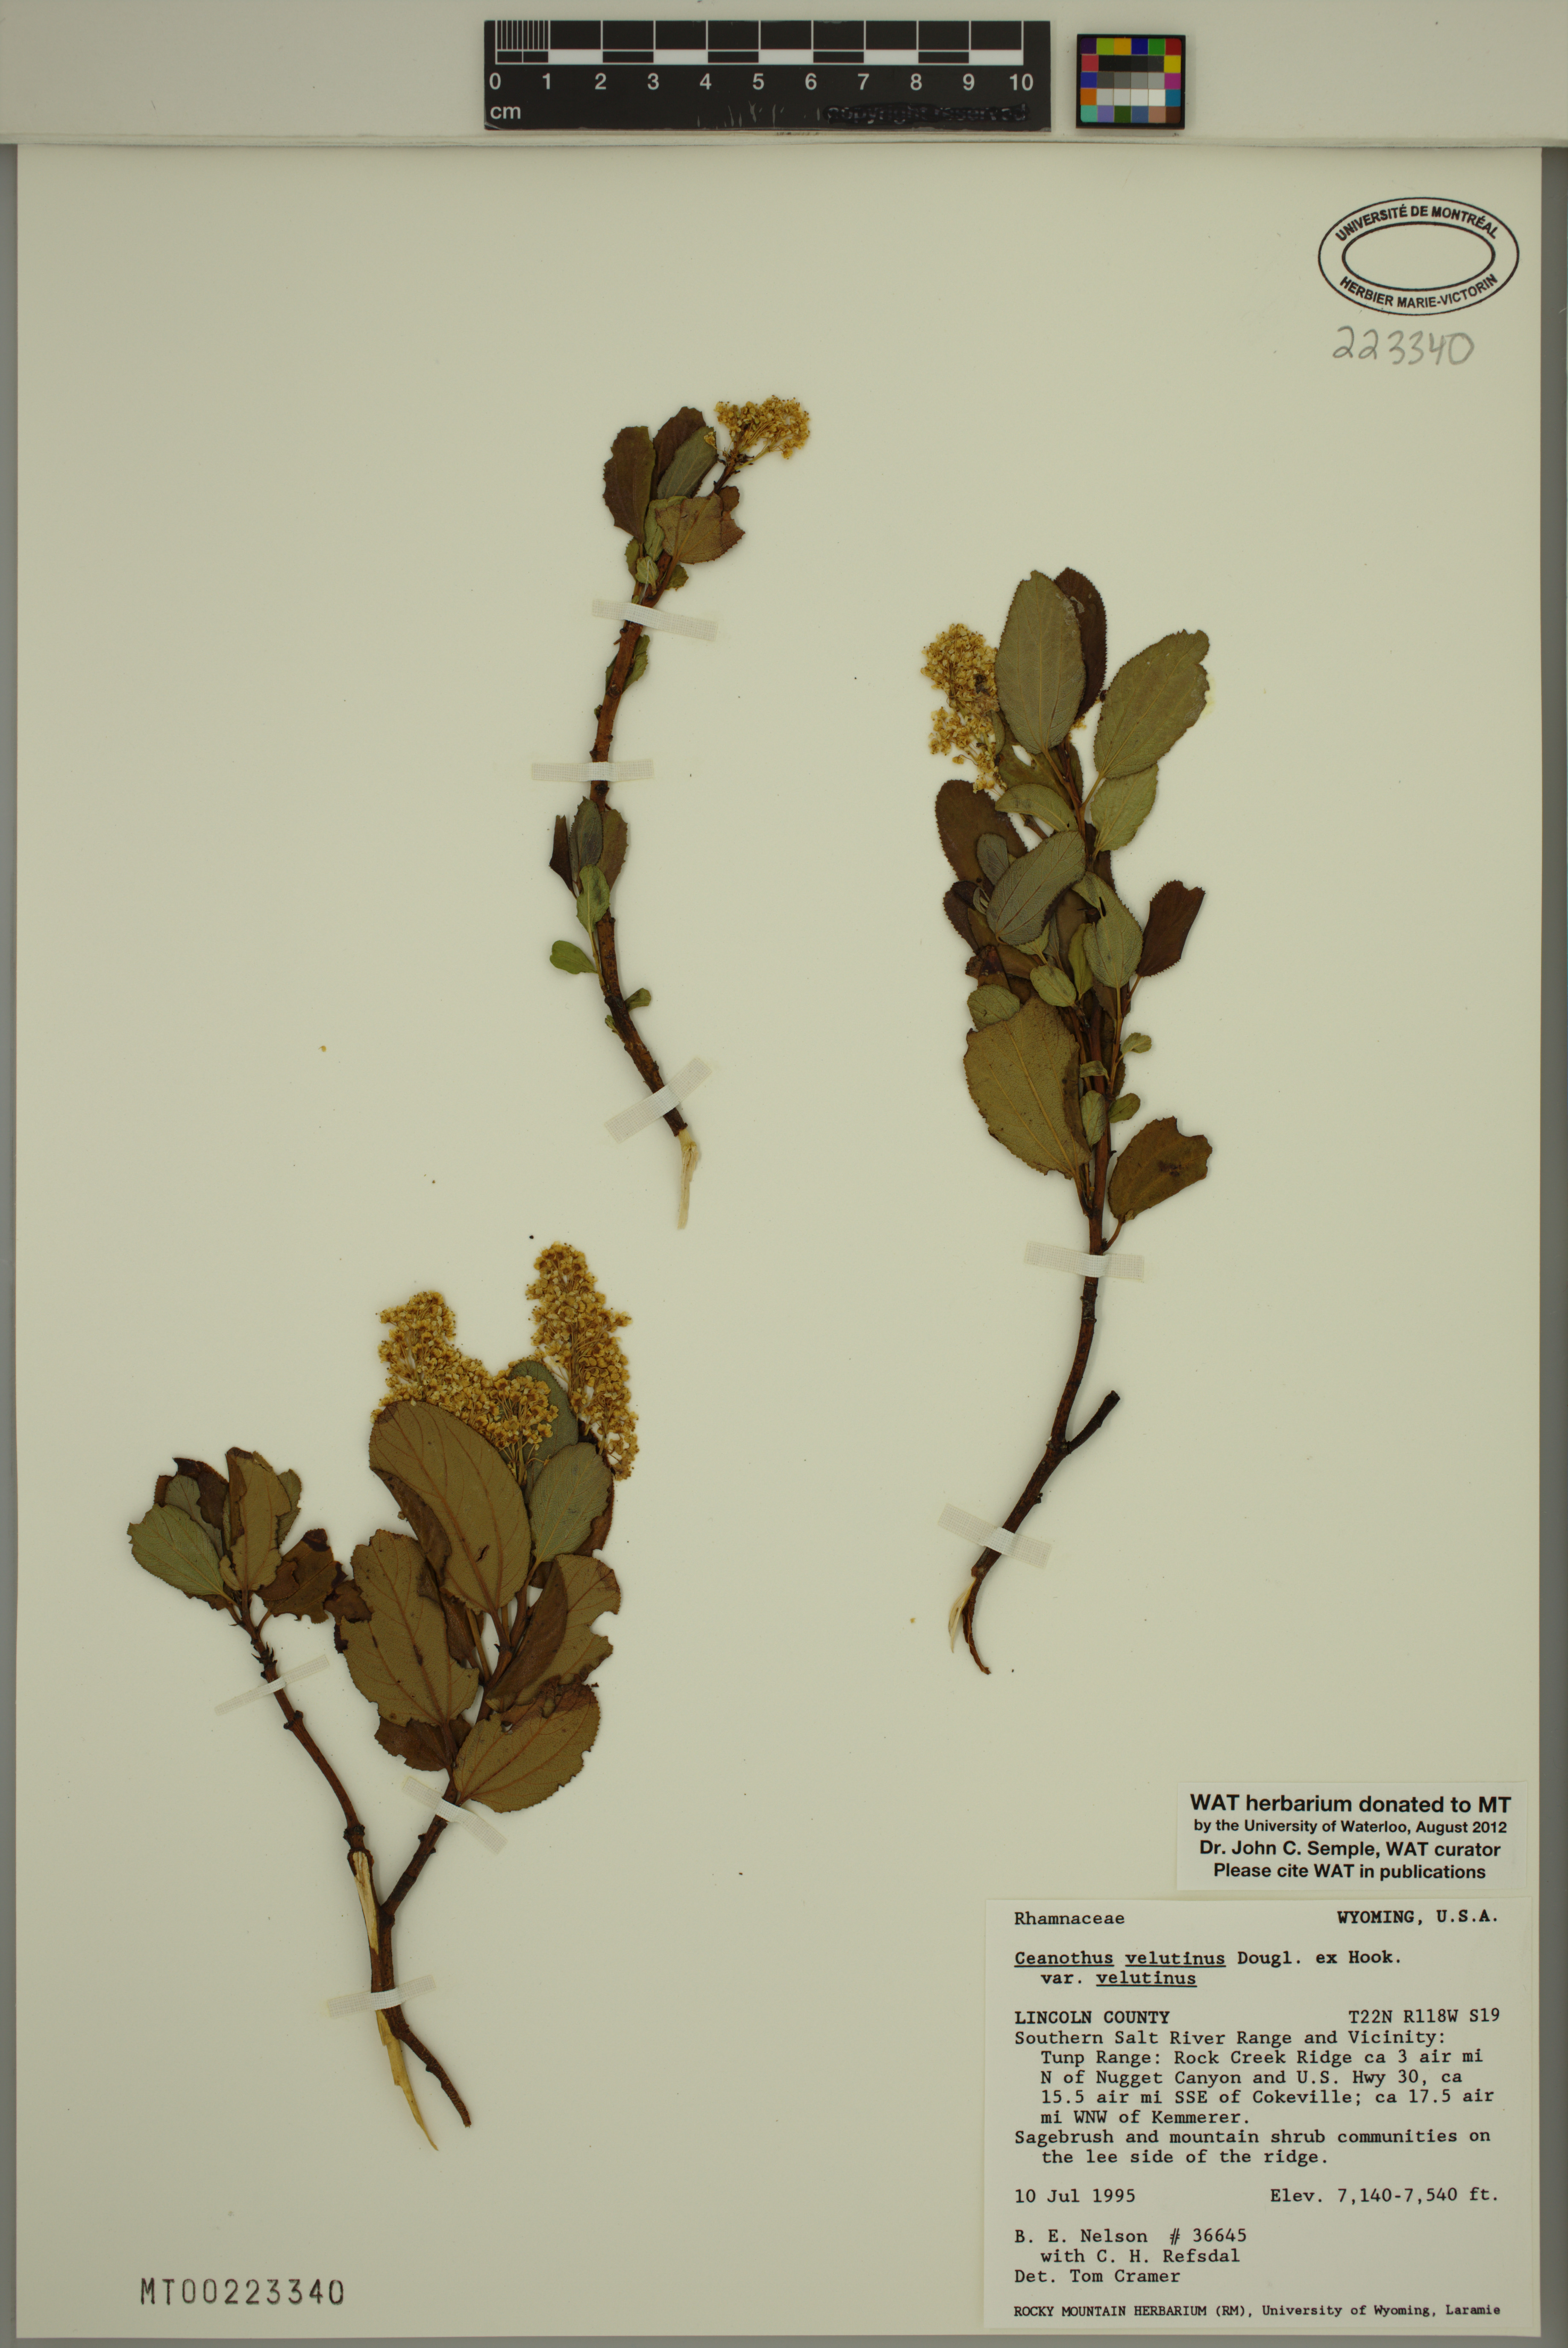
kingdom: Plantae
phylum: Tracheophyta
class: Magnoliopsida
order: Rosales
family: Rhamnaceae
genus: Ceanothus
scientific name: Ceanothus velutinus
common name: Snowbrush
